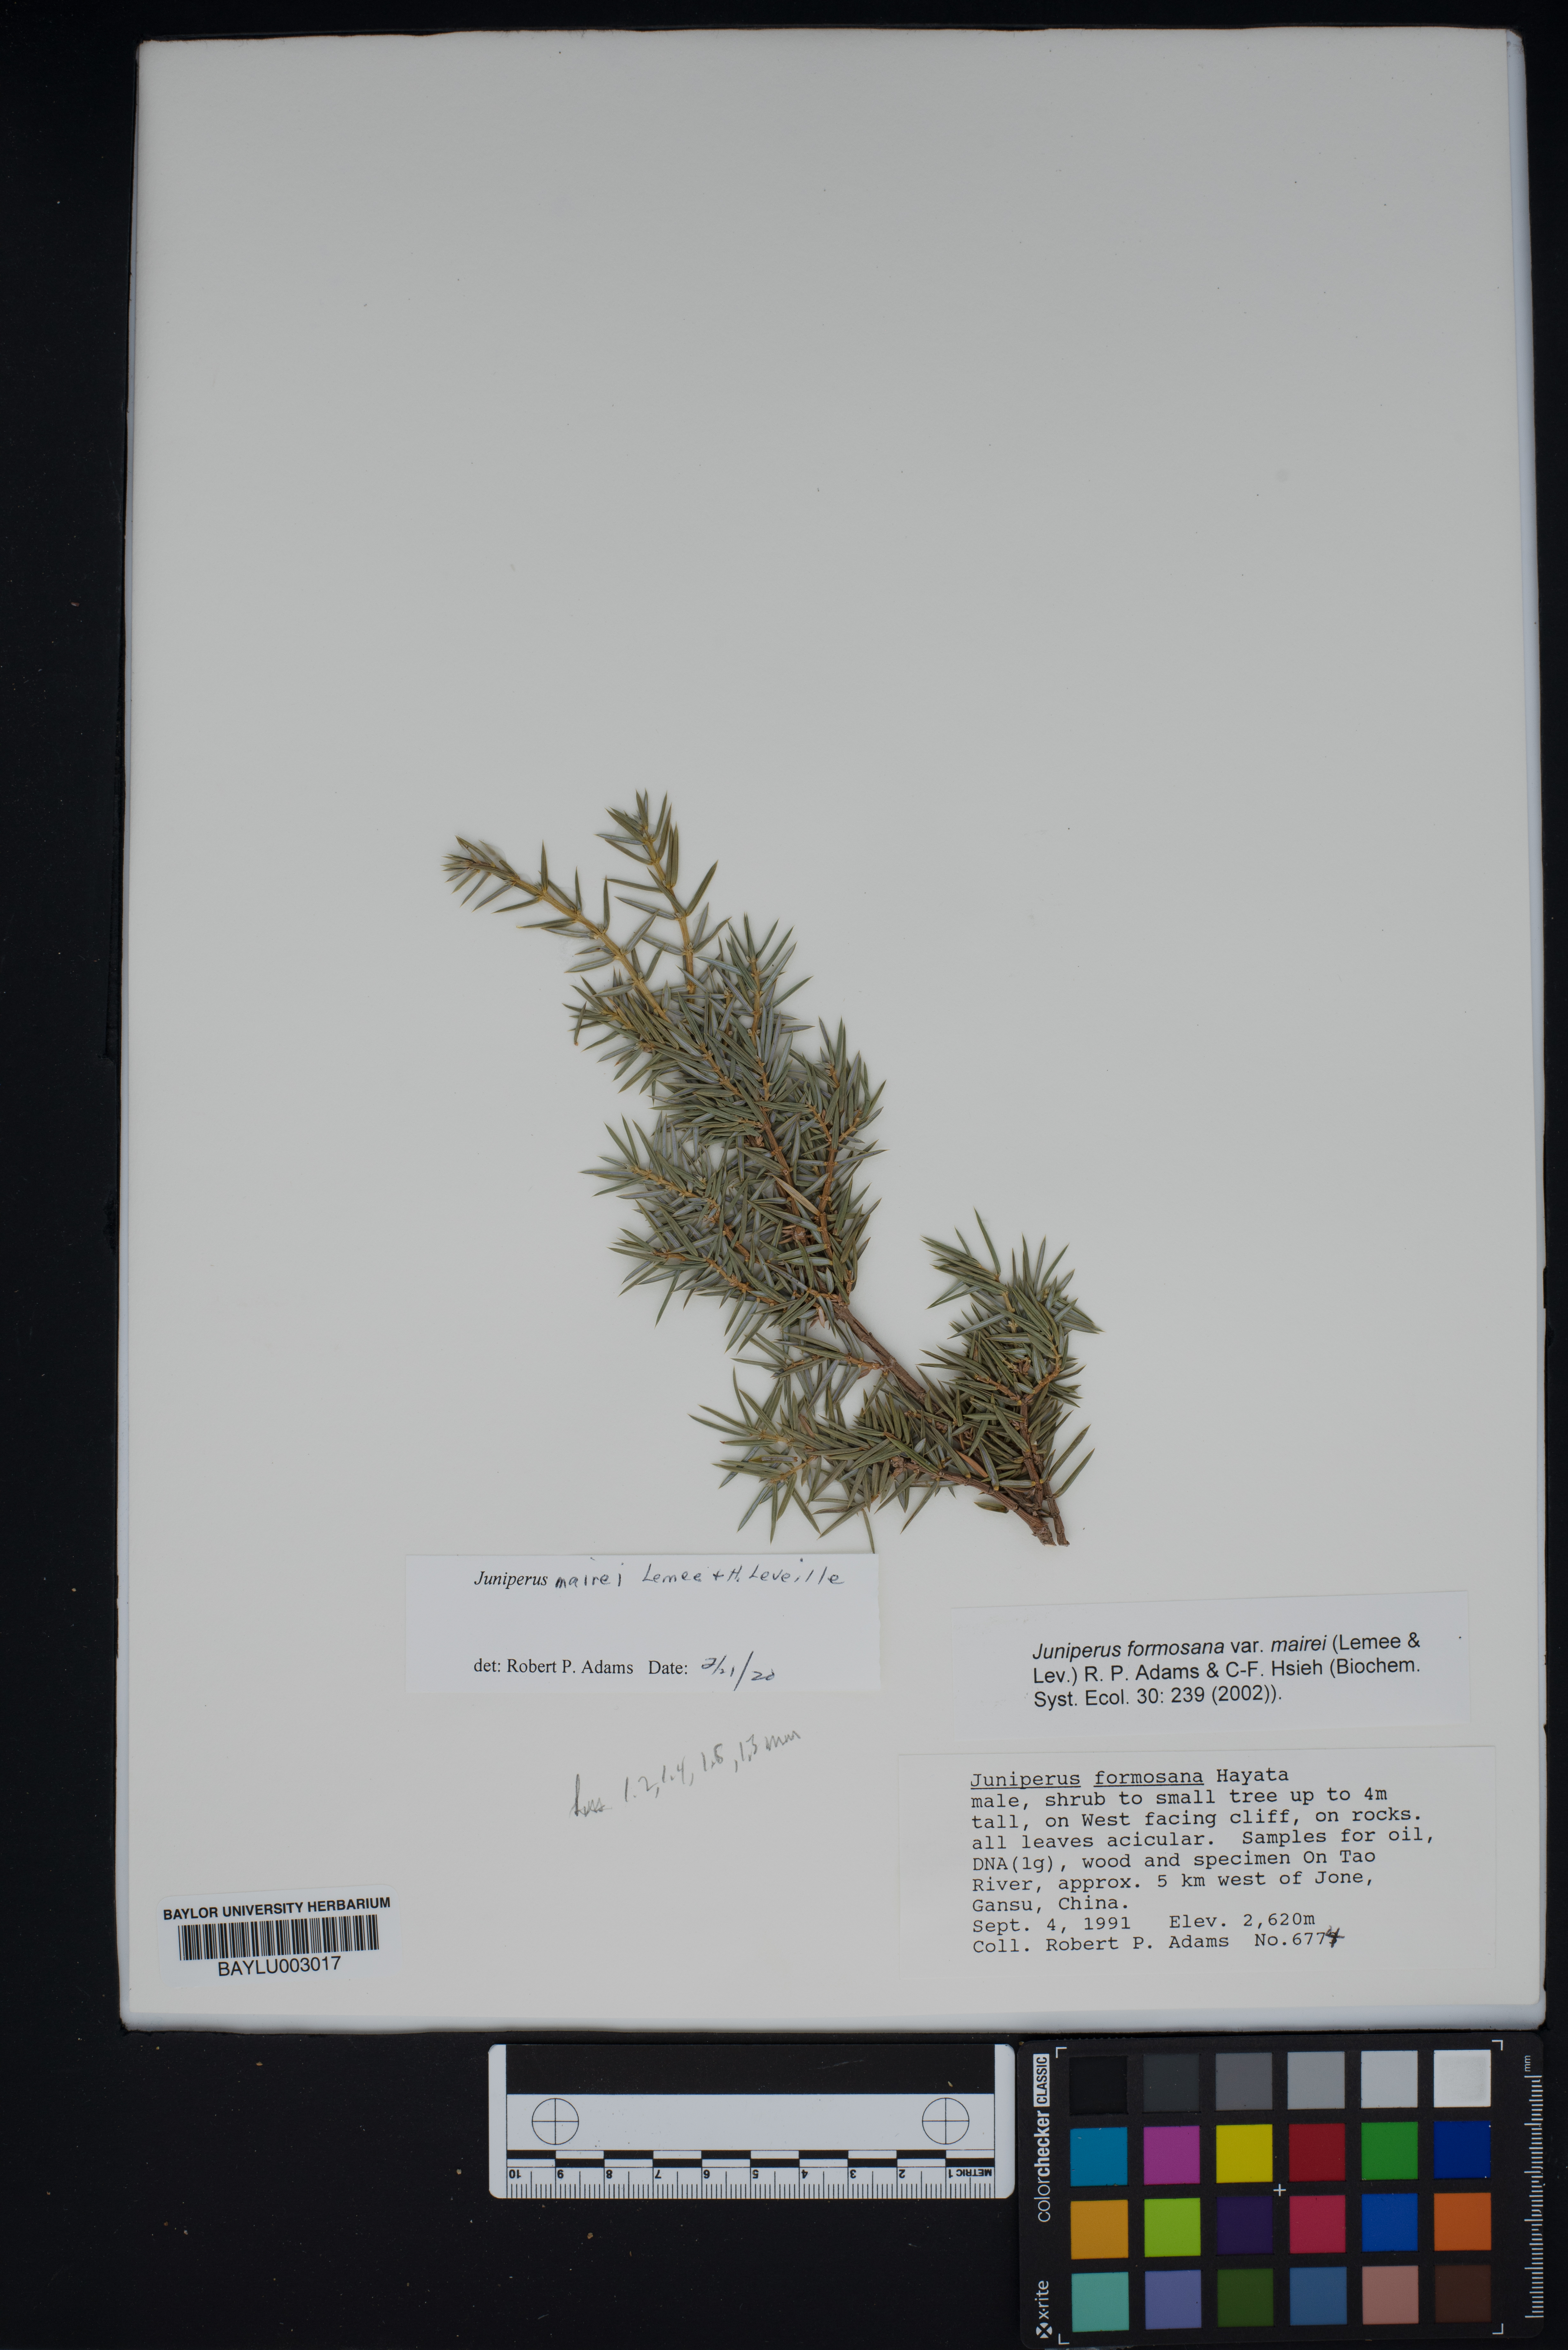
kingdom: Plantae
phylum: Tracheophyta
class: Pinopsida
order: Pinales
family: Cupressaceae
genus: Juniperus
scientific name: Juniperus formosana
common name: Formosan juniper
